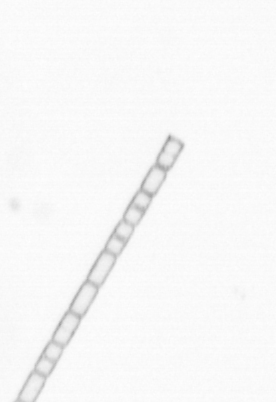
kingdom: Chromista
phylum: Ochrophyta
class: Bacillariophyceae
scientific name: Bacillariophyceae
